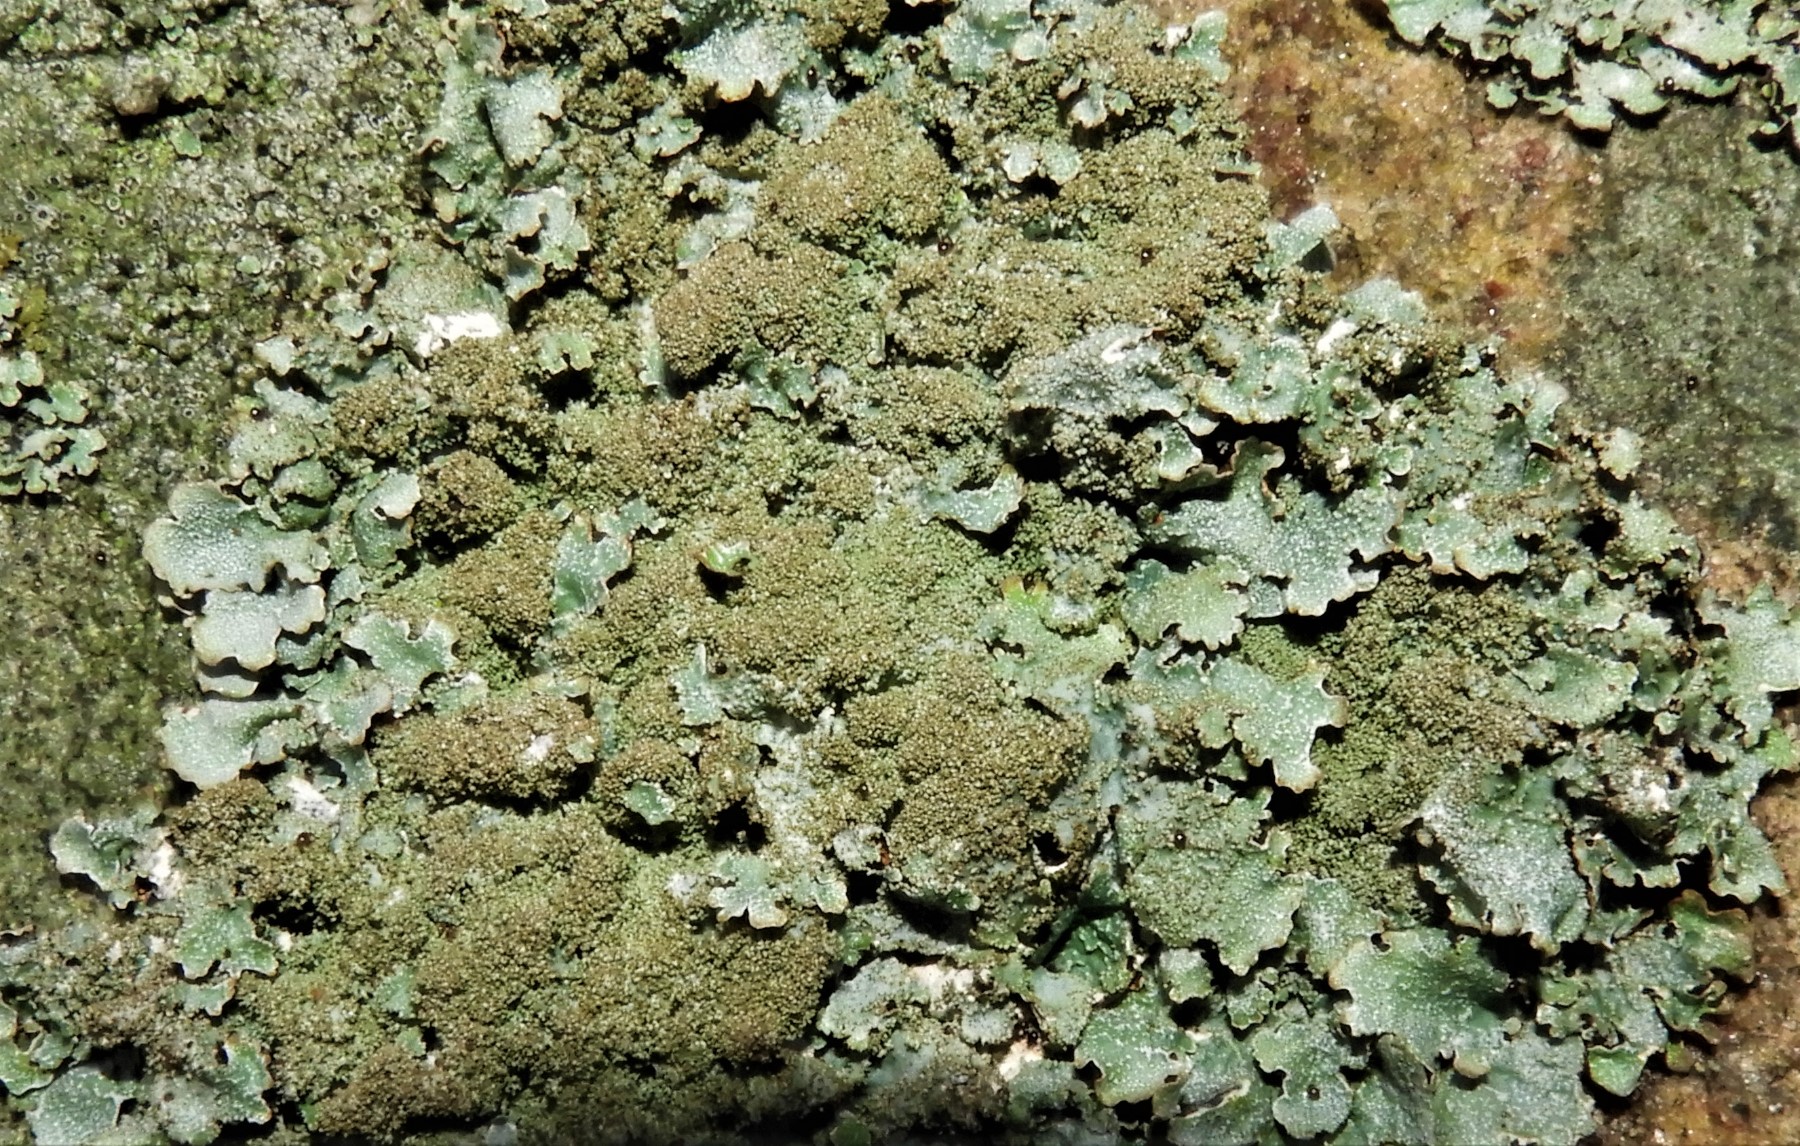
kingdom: Fungi
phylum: Ascomycota
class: Lecanoromycetes
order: Lecanorales
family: Parmeliaceae
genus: Parmelia
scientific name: Parmelia saxatilis
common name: farve-skållav
